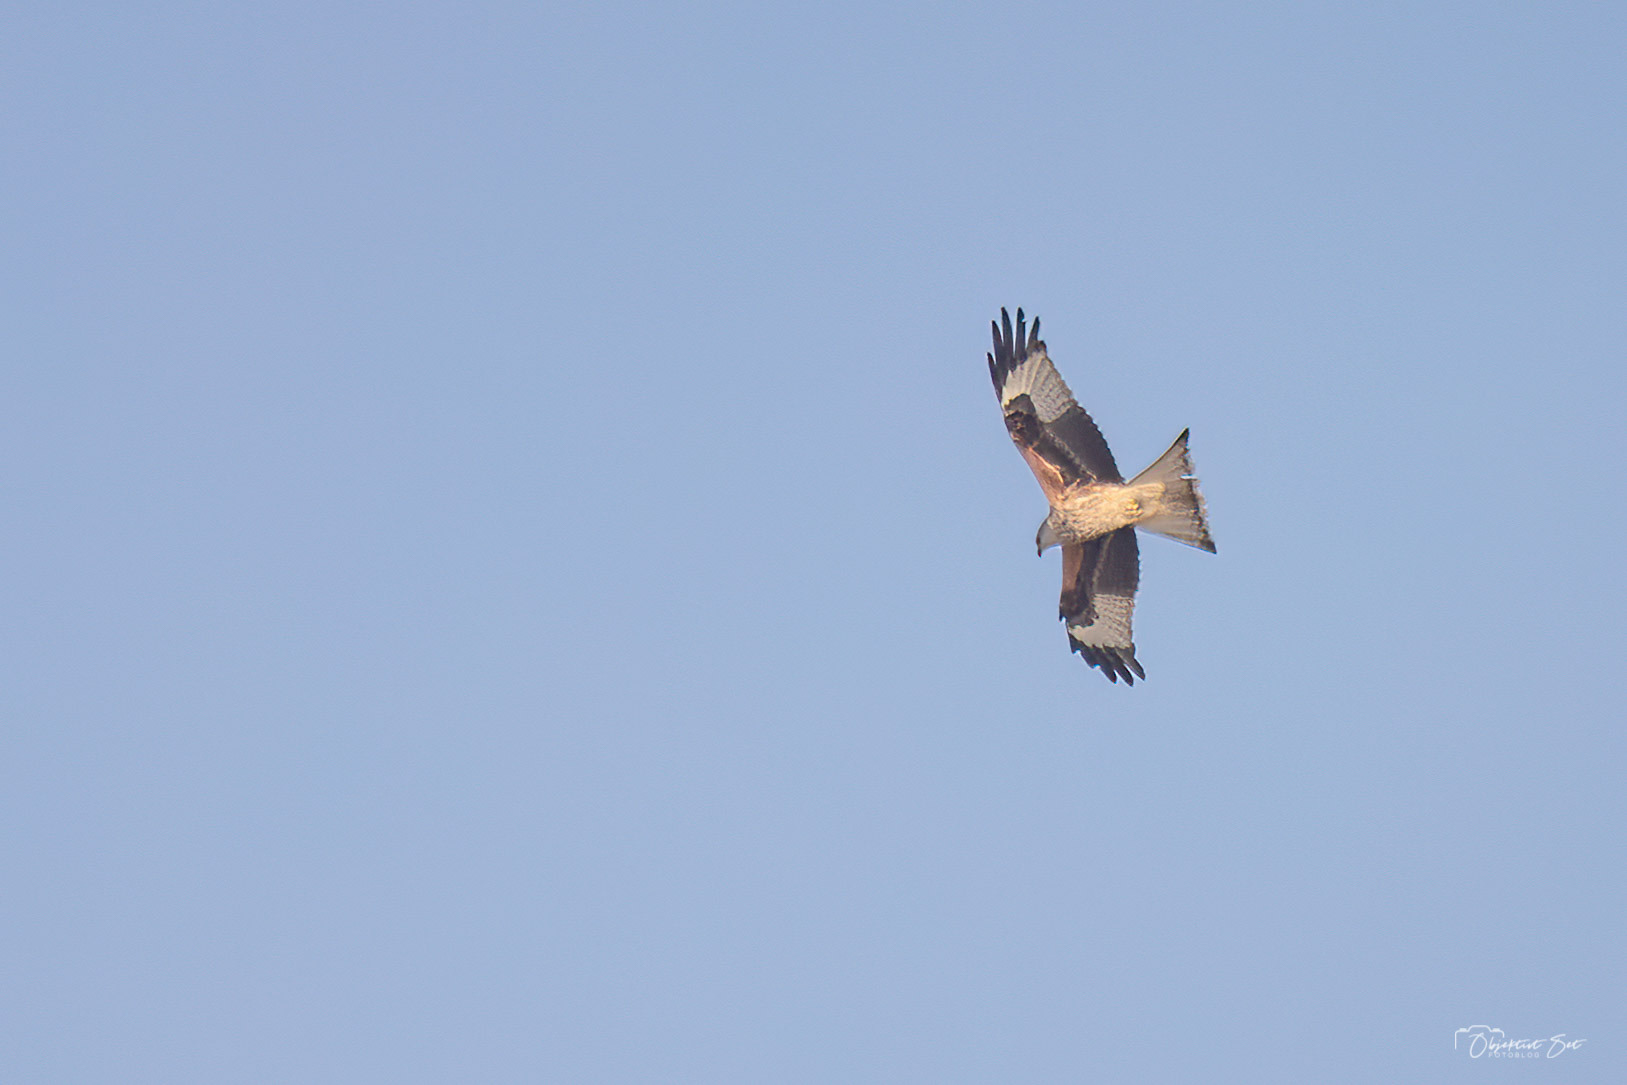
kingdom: Animalia
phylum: Chordata
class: Aves
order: Accipitriformes
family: Accipitridae
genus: Milvus
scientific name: Milvus milvus
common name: Rød glente
